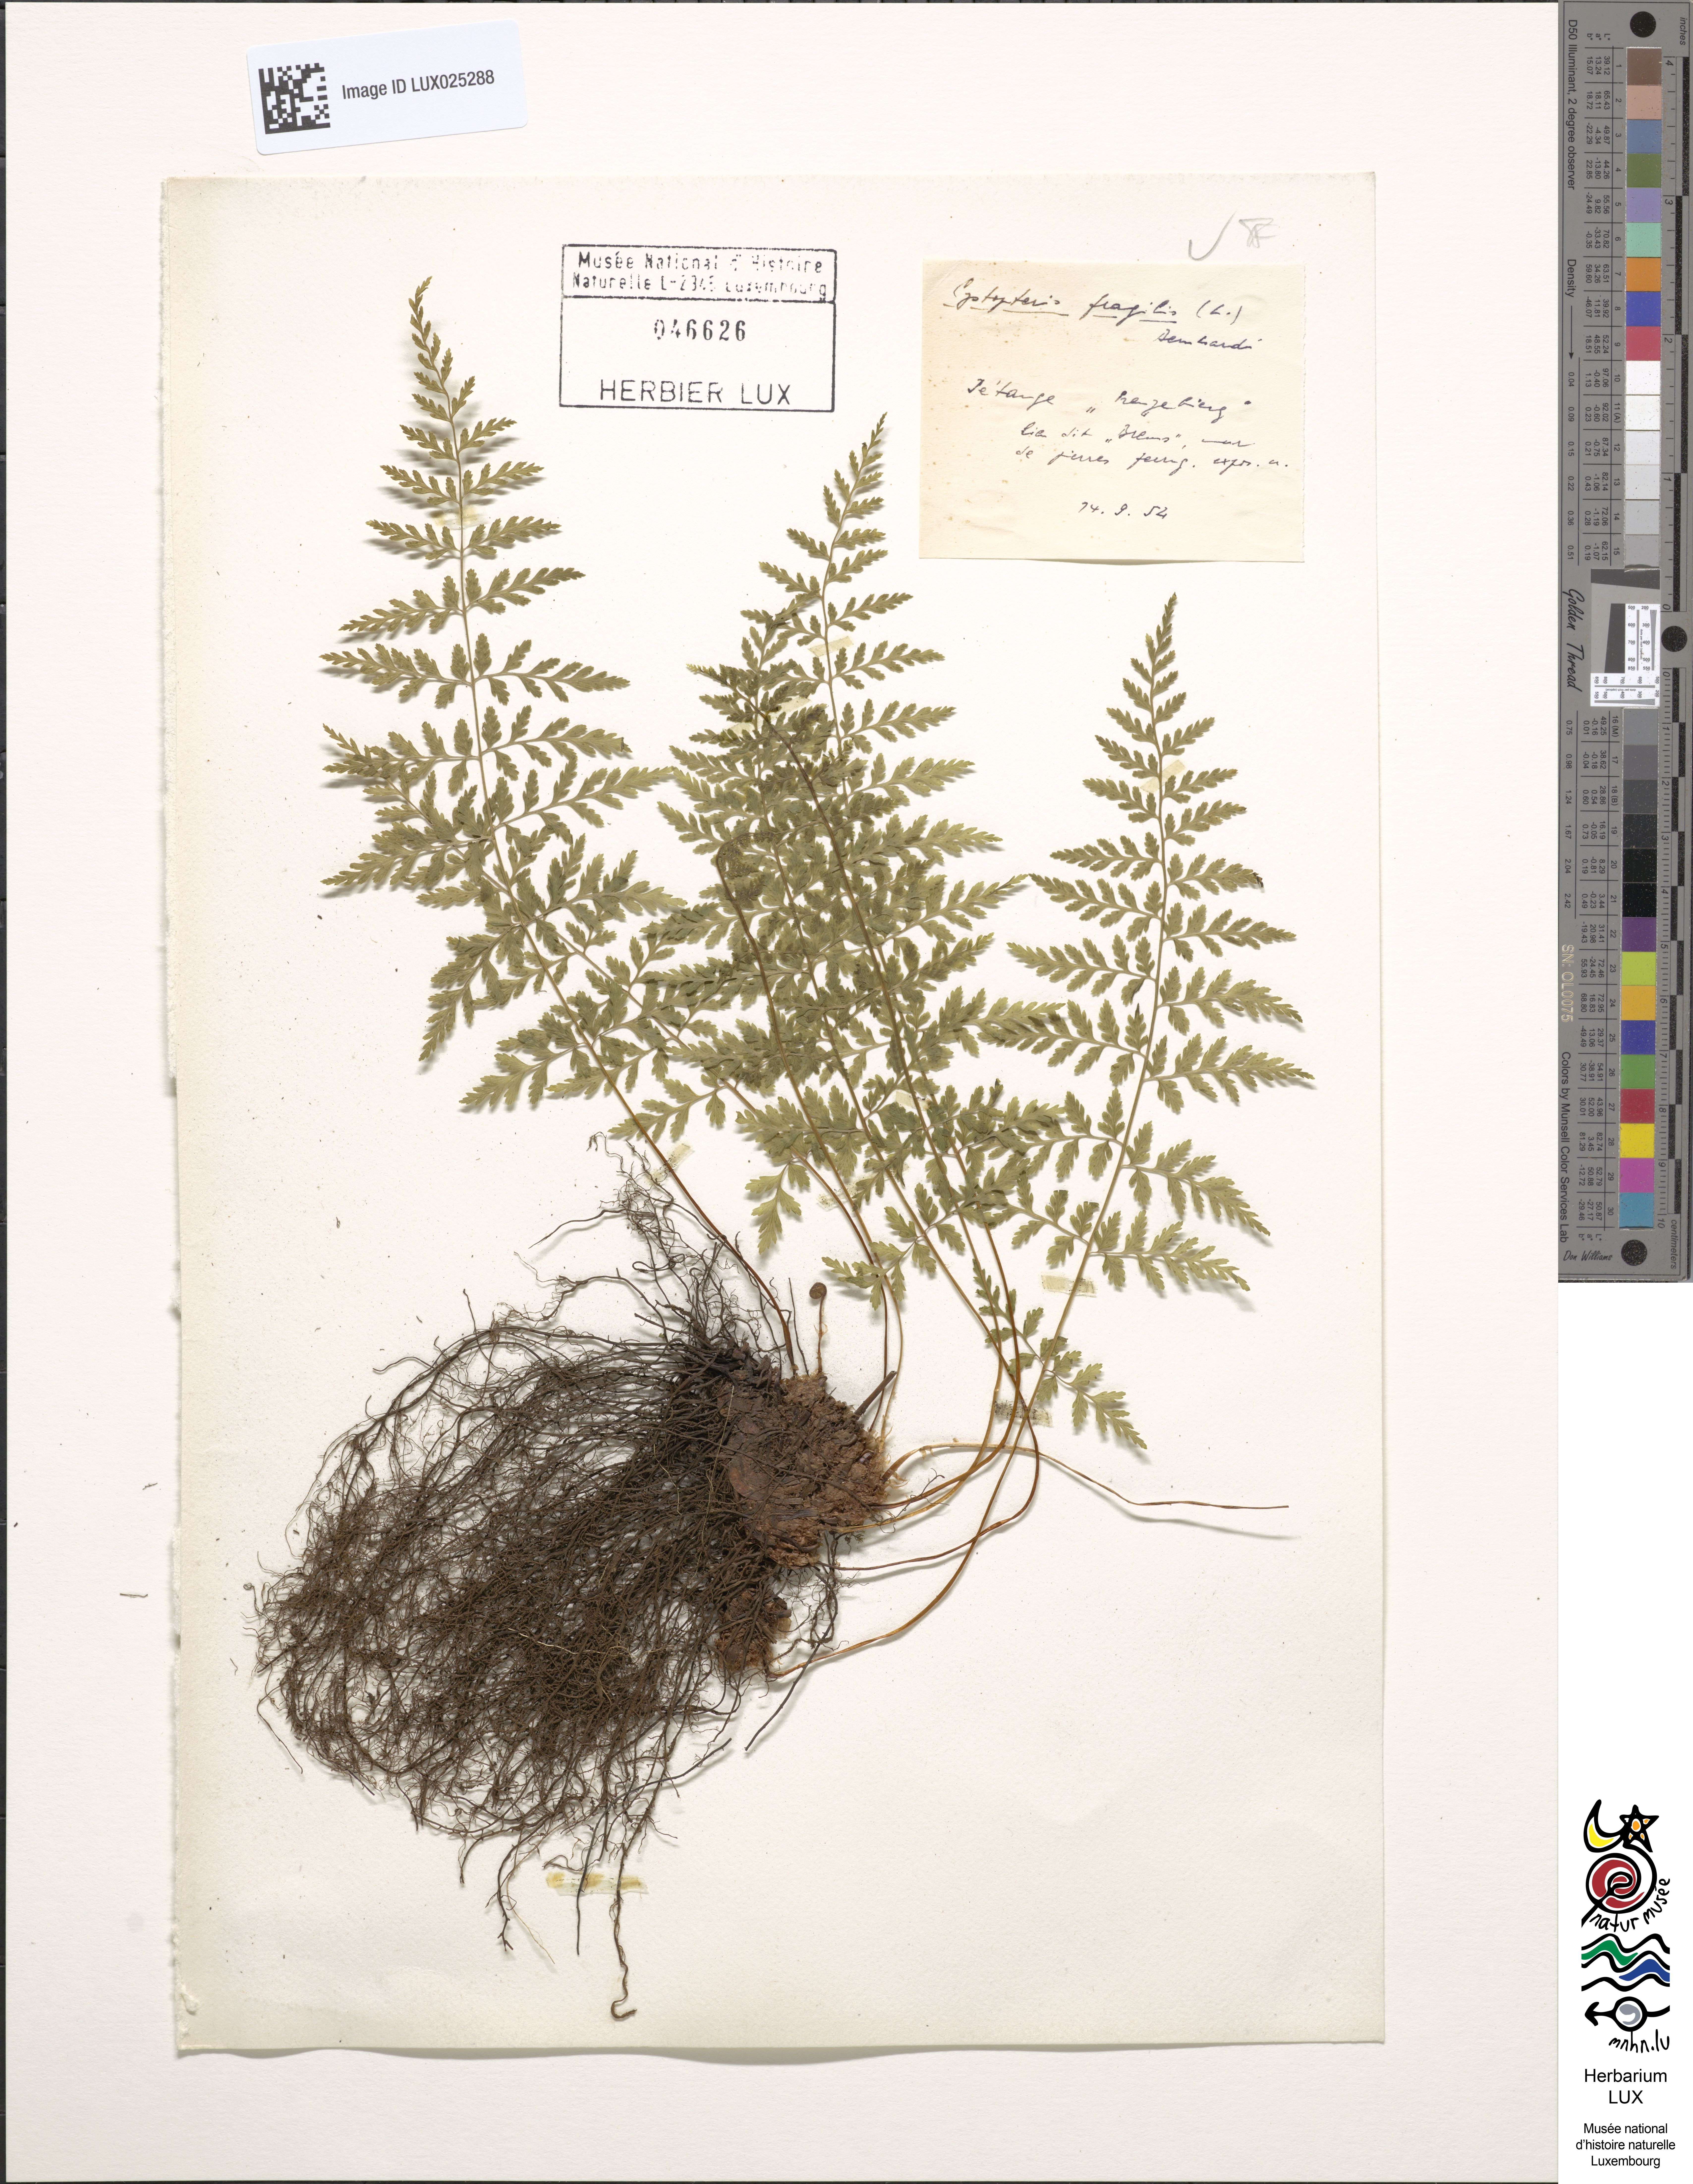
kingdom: Plantae
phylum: Tracheophyta
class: Polypodiopsida
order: Polypodiales
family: Cystopteridaceae
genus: Cystopteris
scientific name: Cystopteris fragilis
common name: Brittle bladder fern
